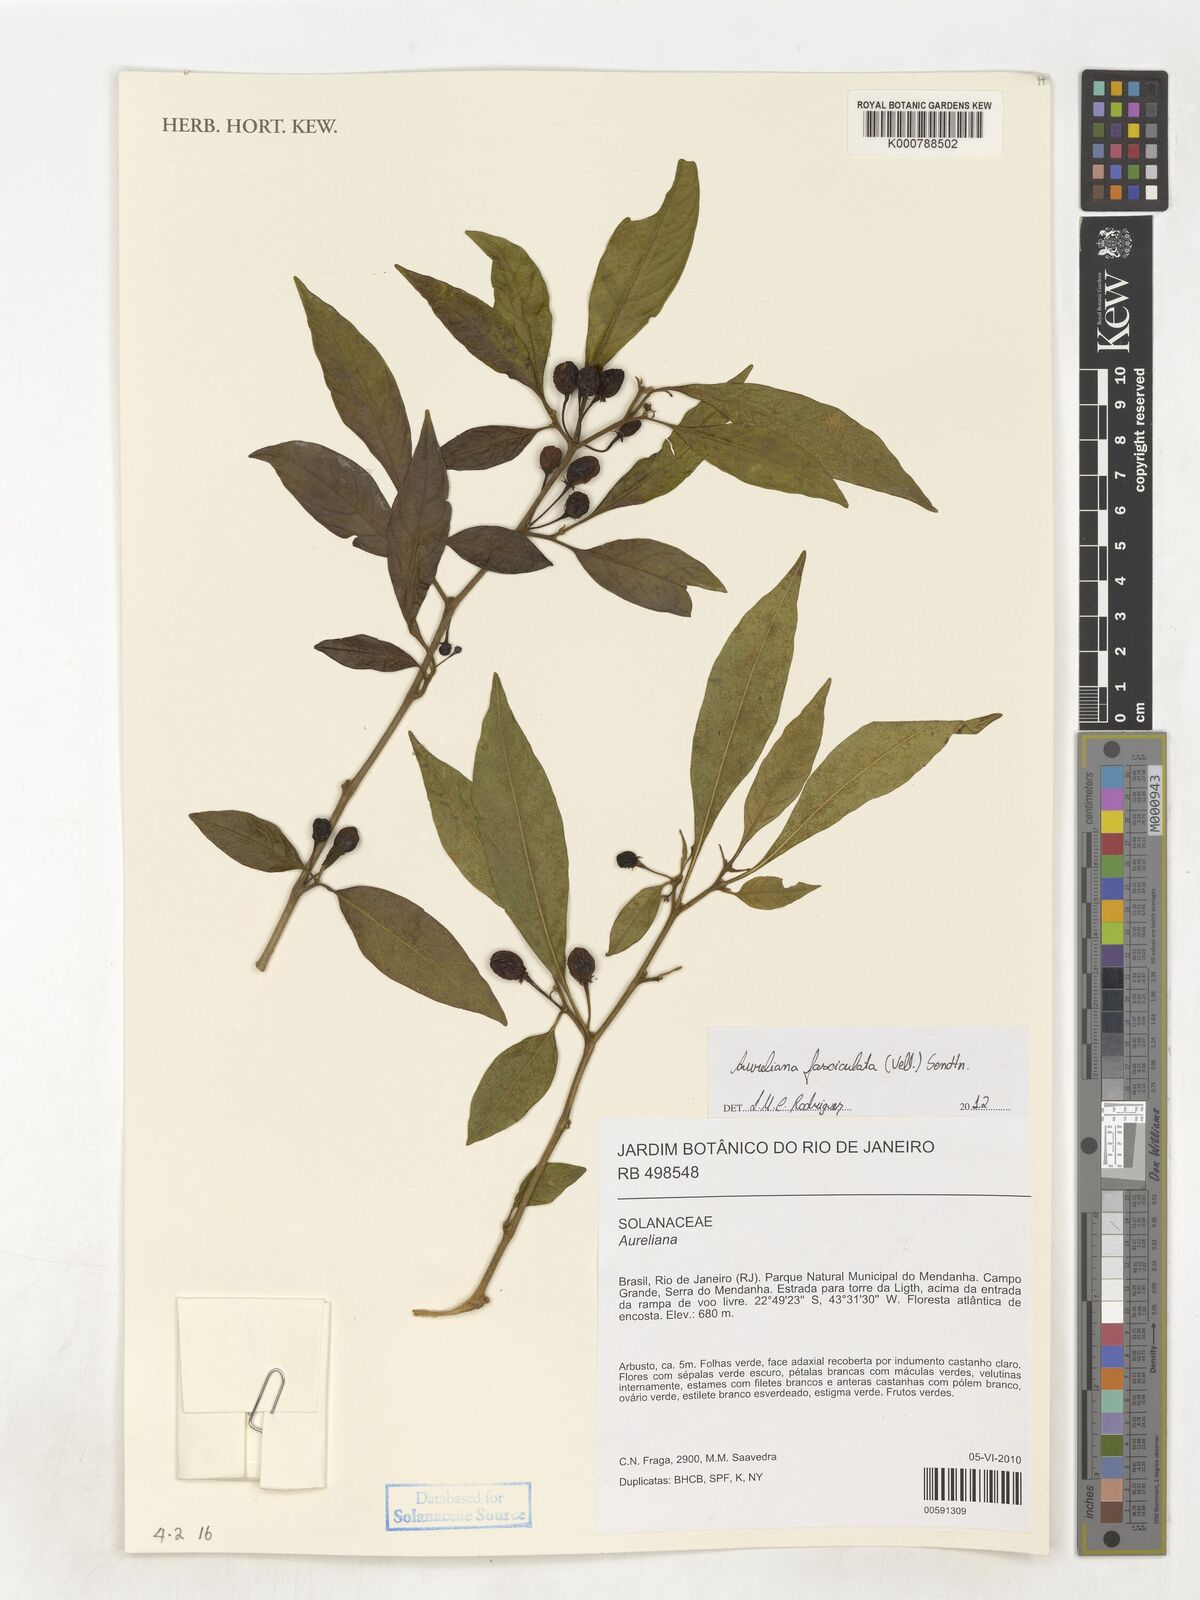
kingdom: Plantae
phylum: Tracheophyta
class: Magnoliopsida
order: Solanales
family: Solanaceae
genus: Athenaea
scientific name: Athenaea fasciculata
